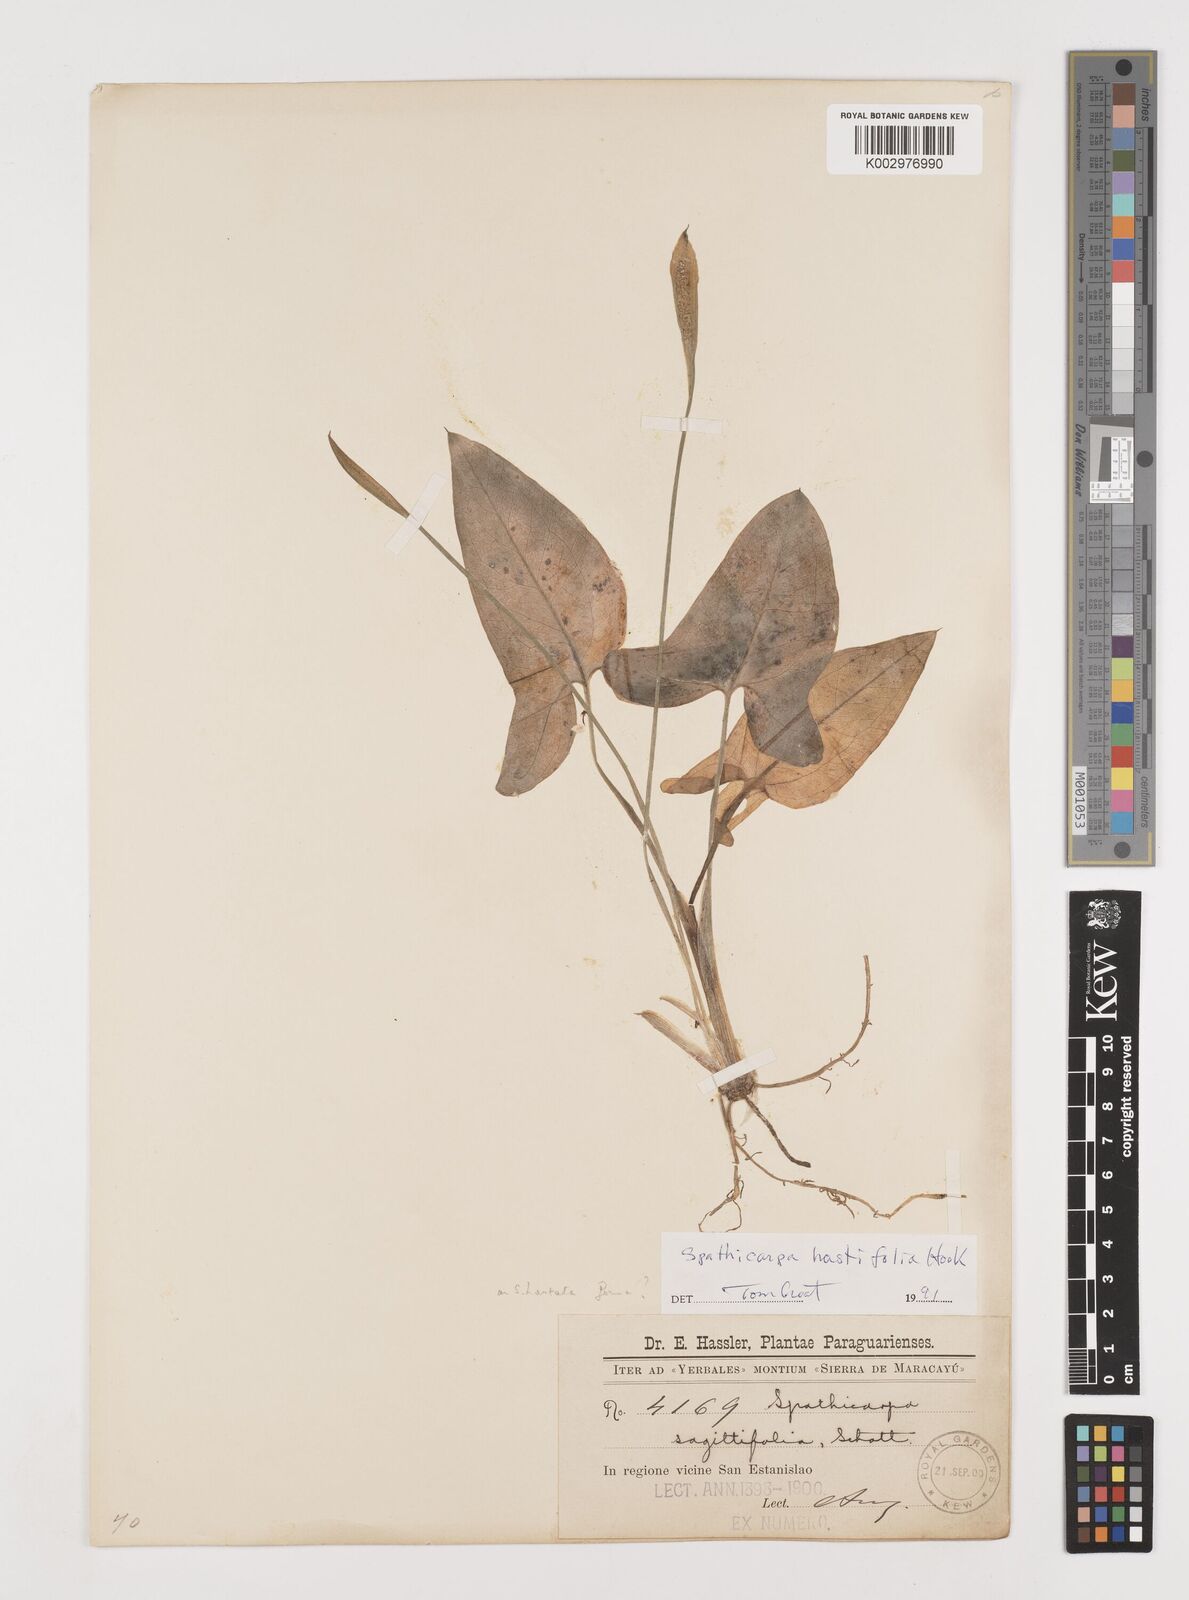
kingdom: Plantae
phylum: Tracheophyta
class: Liliopsida
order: Alismatales
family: Araceae
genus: Spathicarpa
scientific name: Spathicarpa hastifolia
